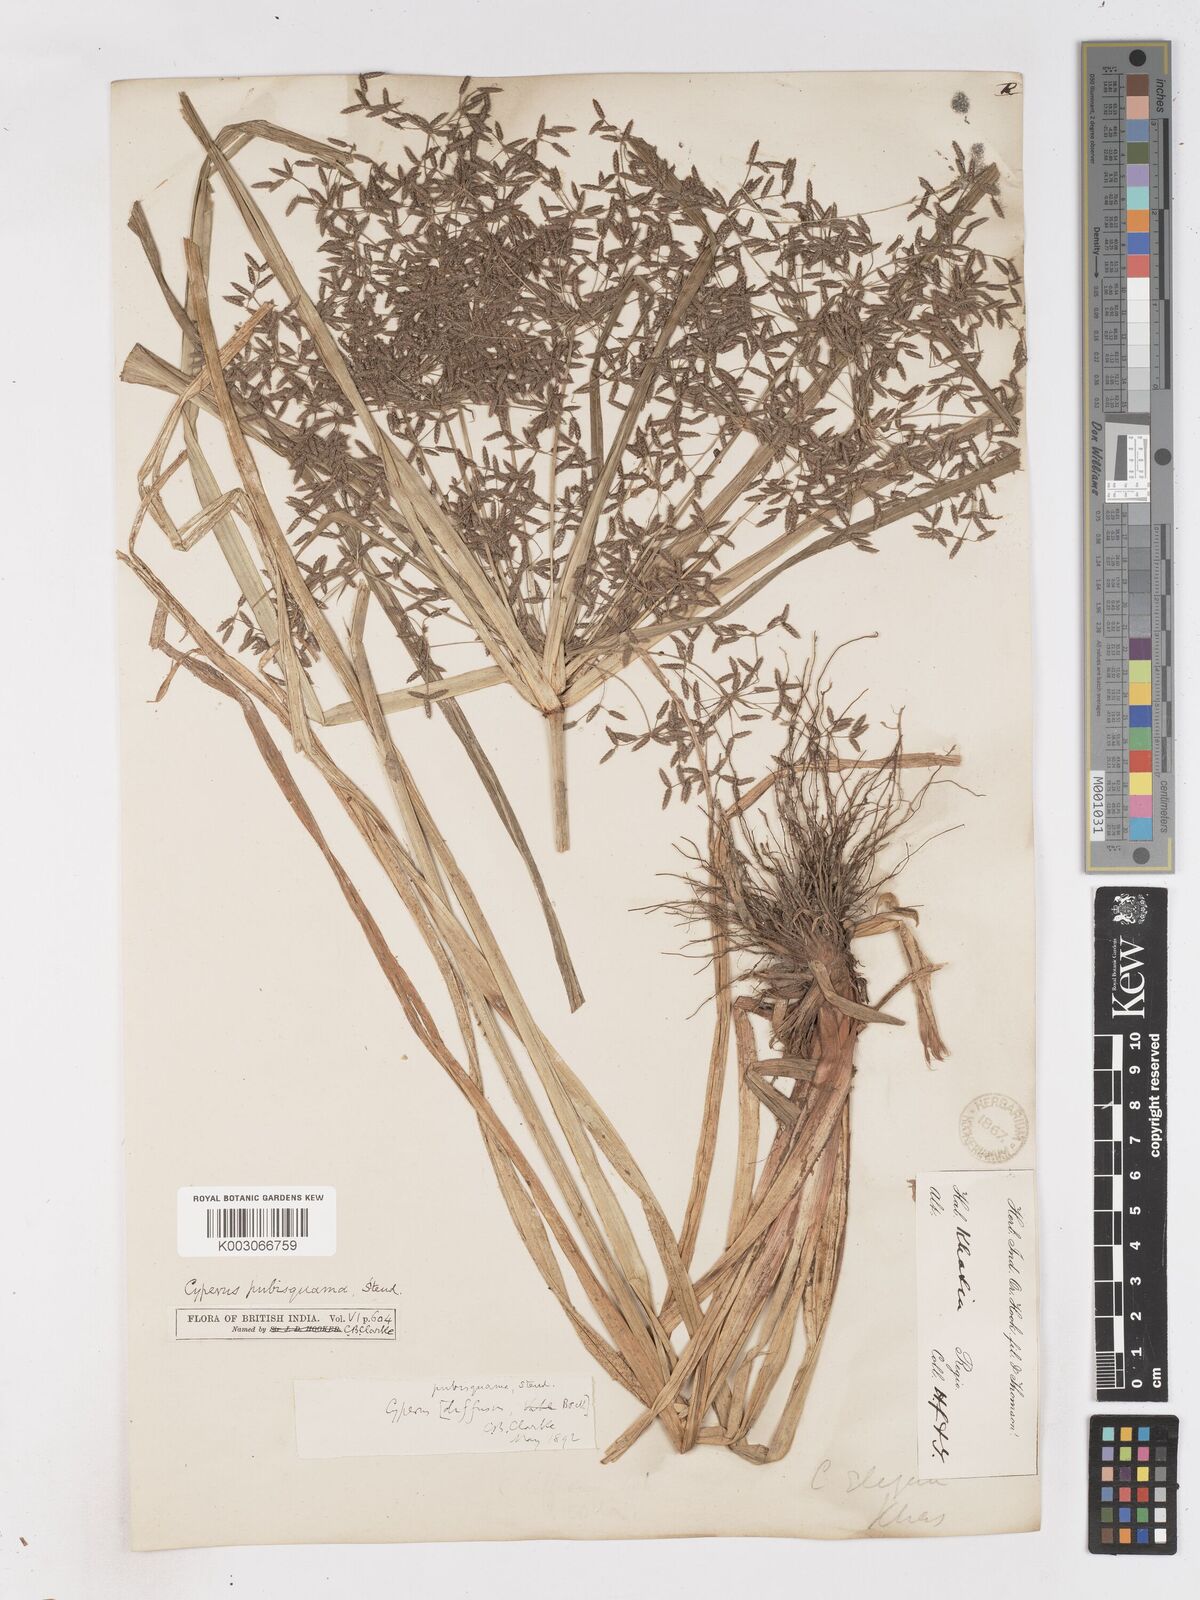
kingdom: Plantae
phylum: Tracheophyta
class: Liliopsida
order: Poales
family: Cyperaceae
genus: Cyperus
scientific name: Cyperus diffusus
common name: Dwarf umbrella grass
